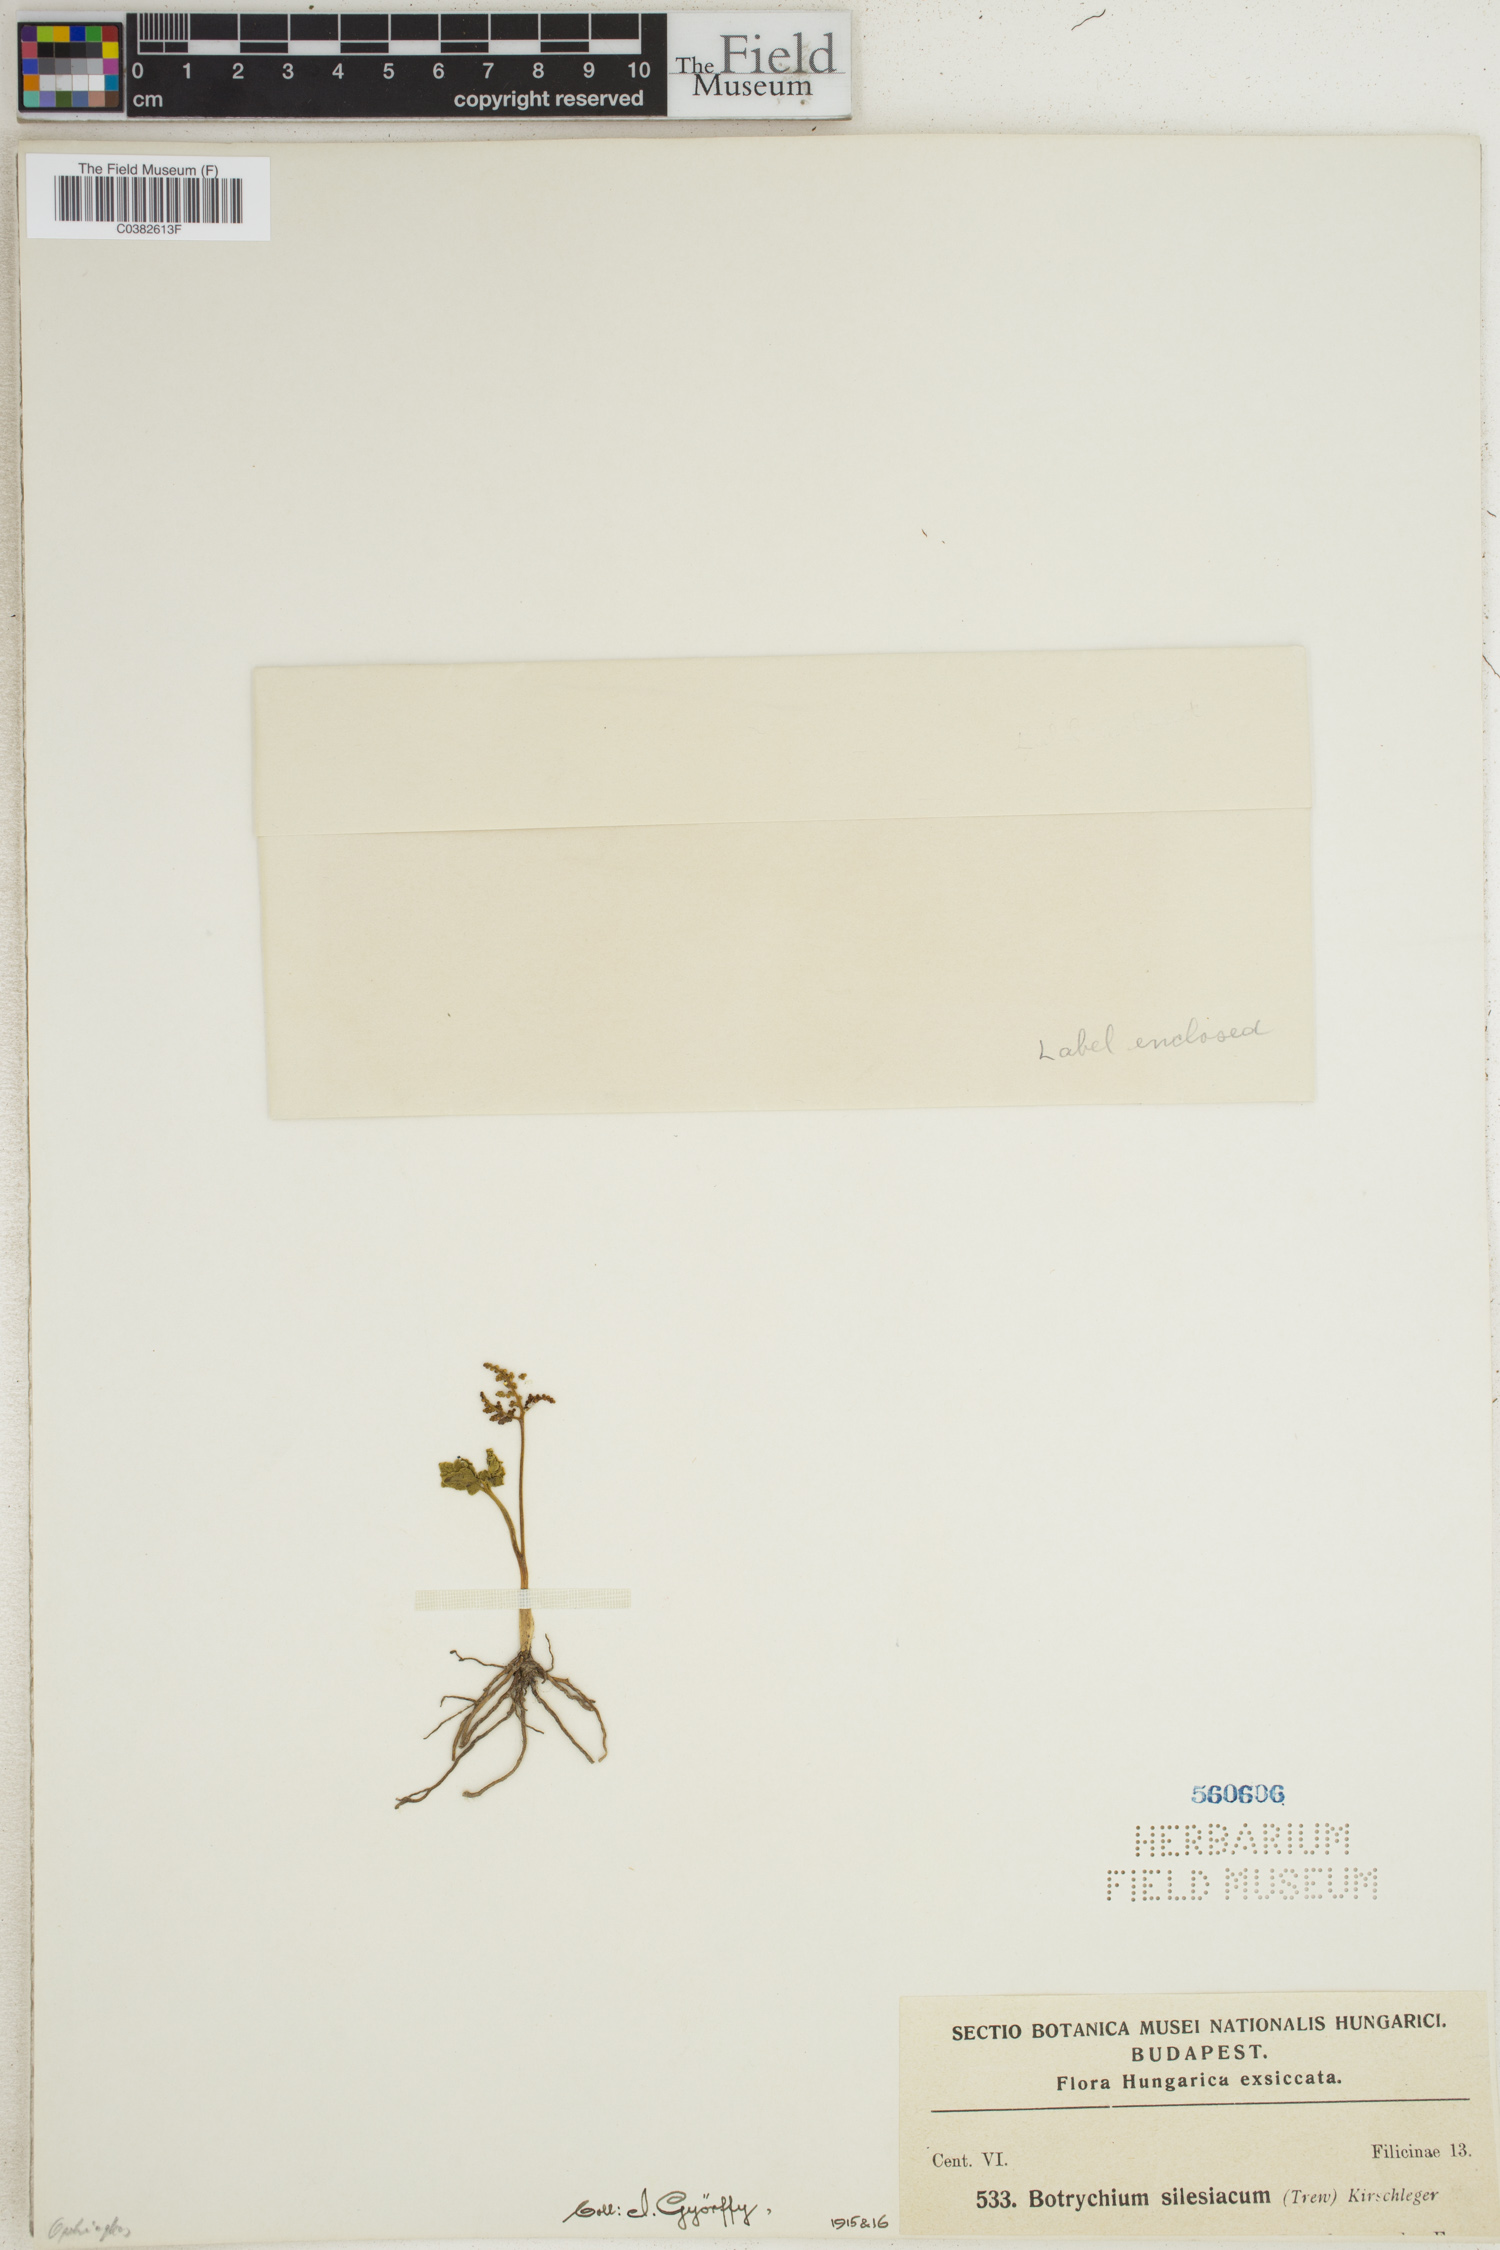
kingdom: Plantae
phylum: Tracheophyta
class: Polypodiopsida
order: Ophioglossales
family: Ophioglossaceae
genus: Sceptridium
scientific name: Sceptridium multifidum
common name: Leathery grape fern
